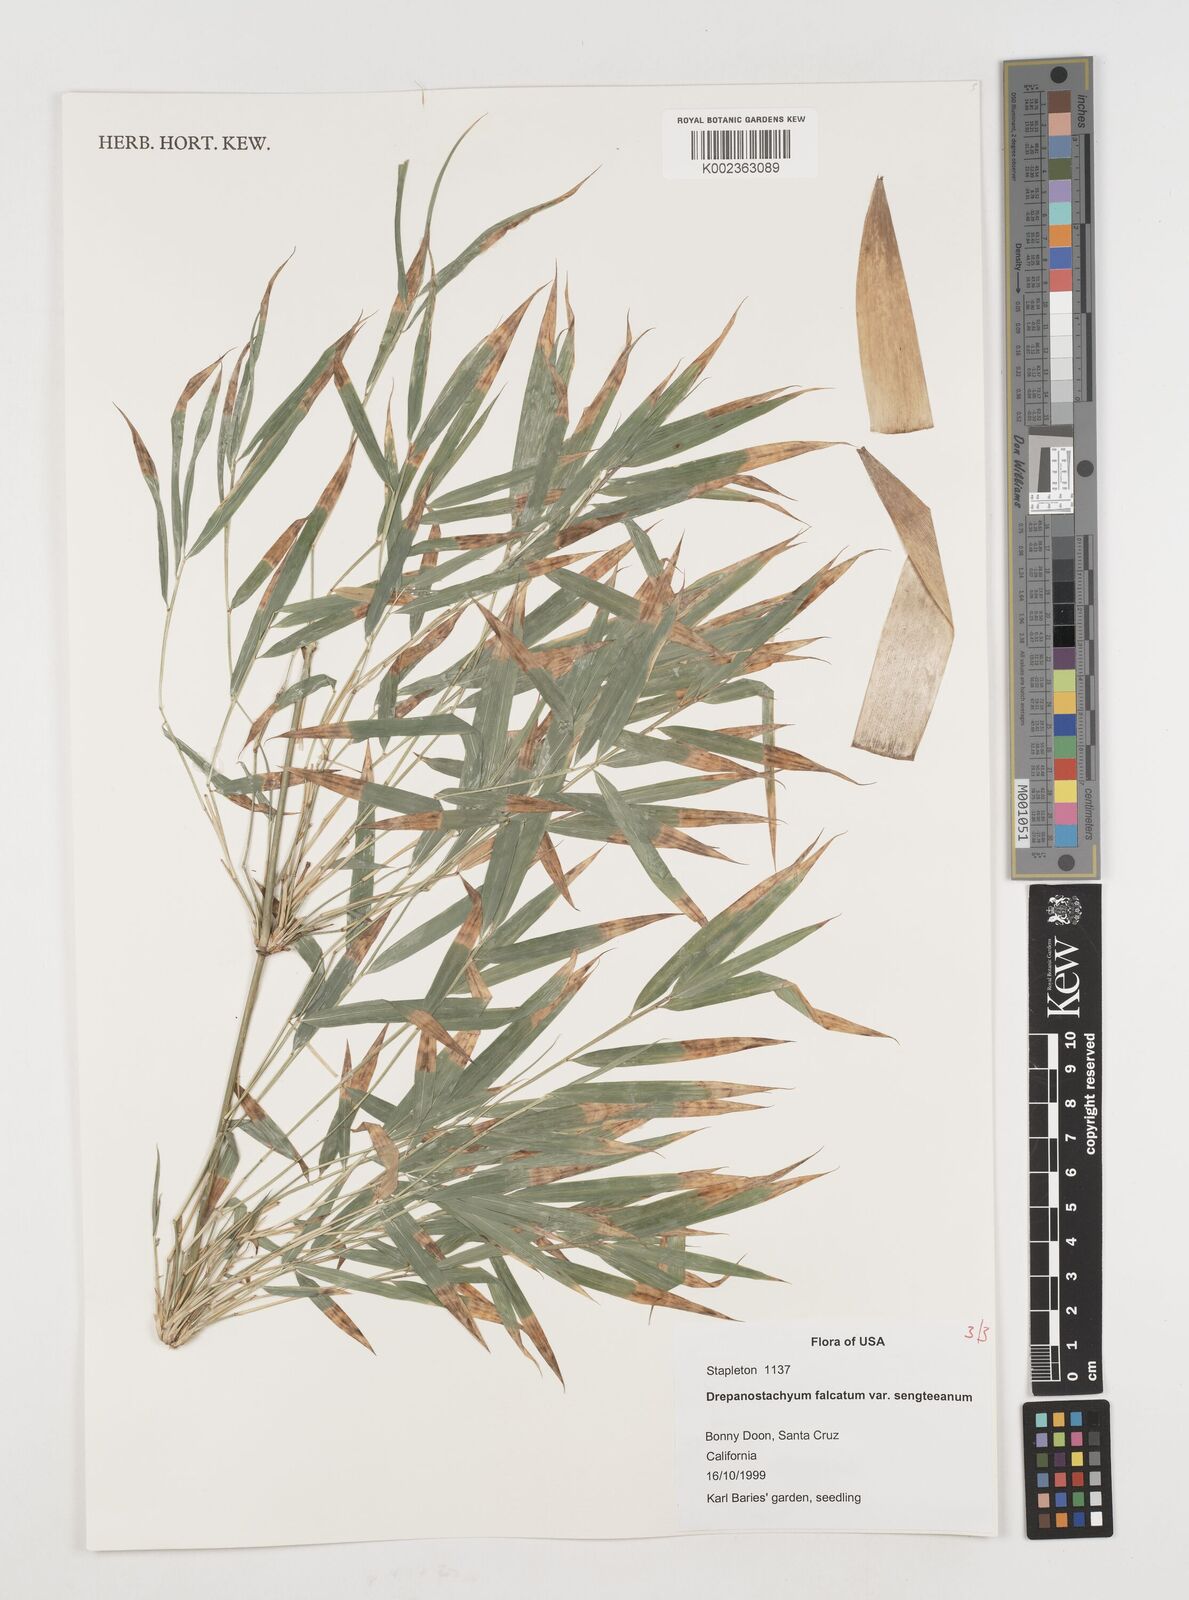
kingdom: Plantae
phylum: Tracheophyta
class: Liliopsida
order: Poales
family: Poaceae
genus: Drepanostachyum
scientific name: Drepanostachyum falcatum
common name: Himalayan bamboo
